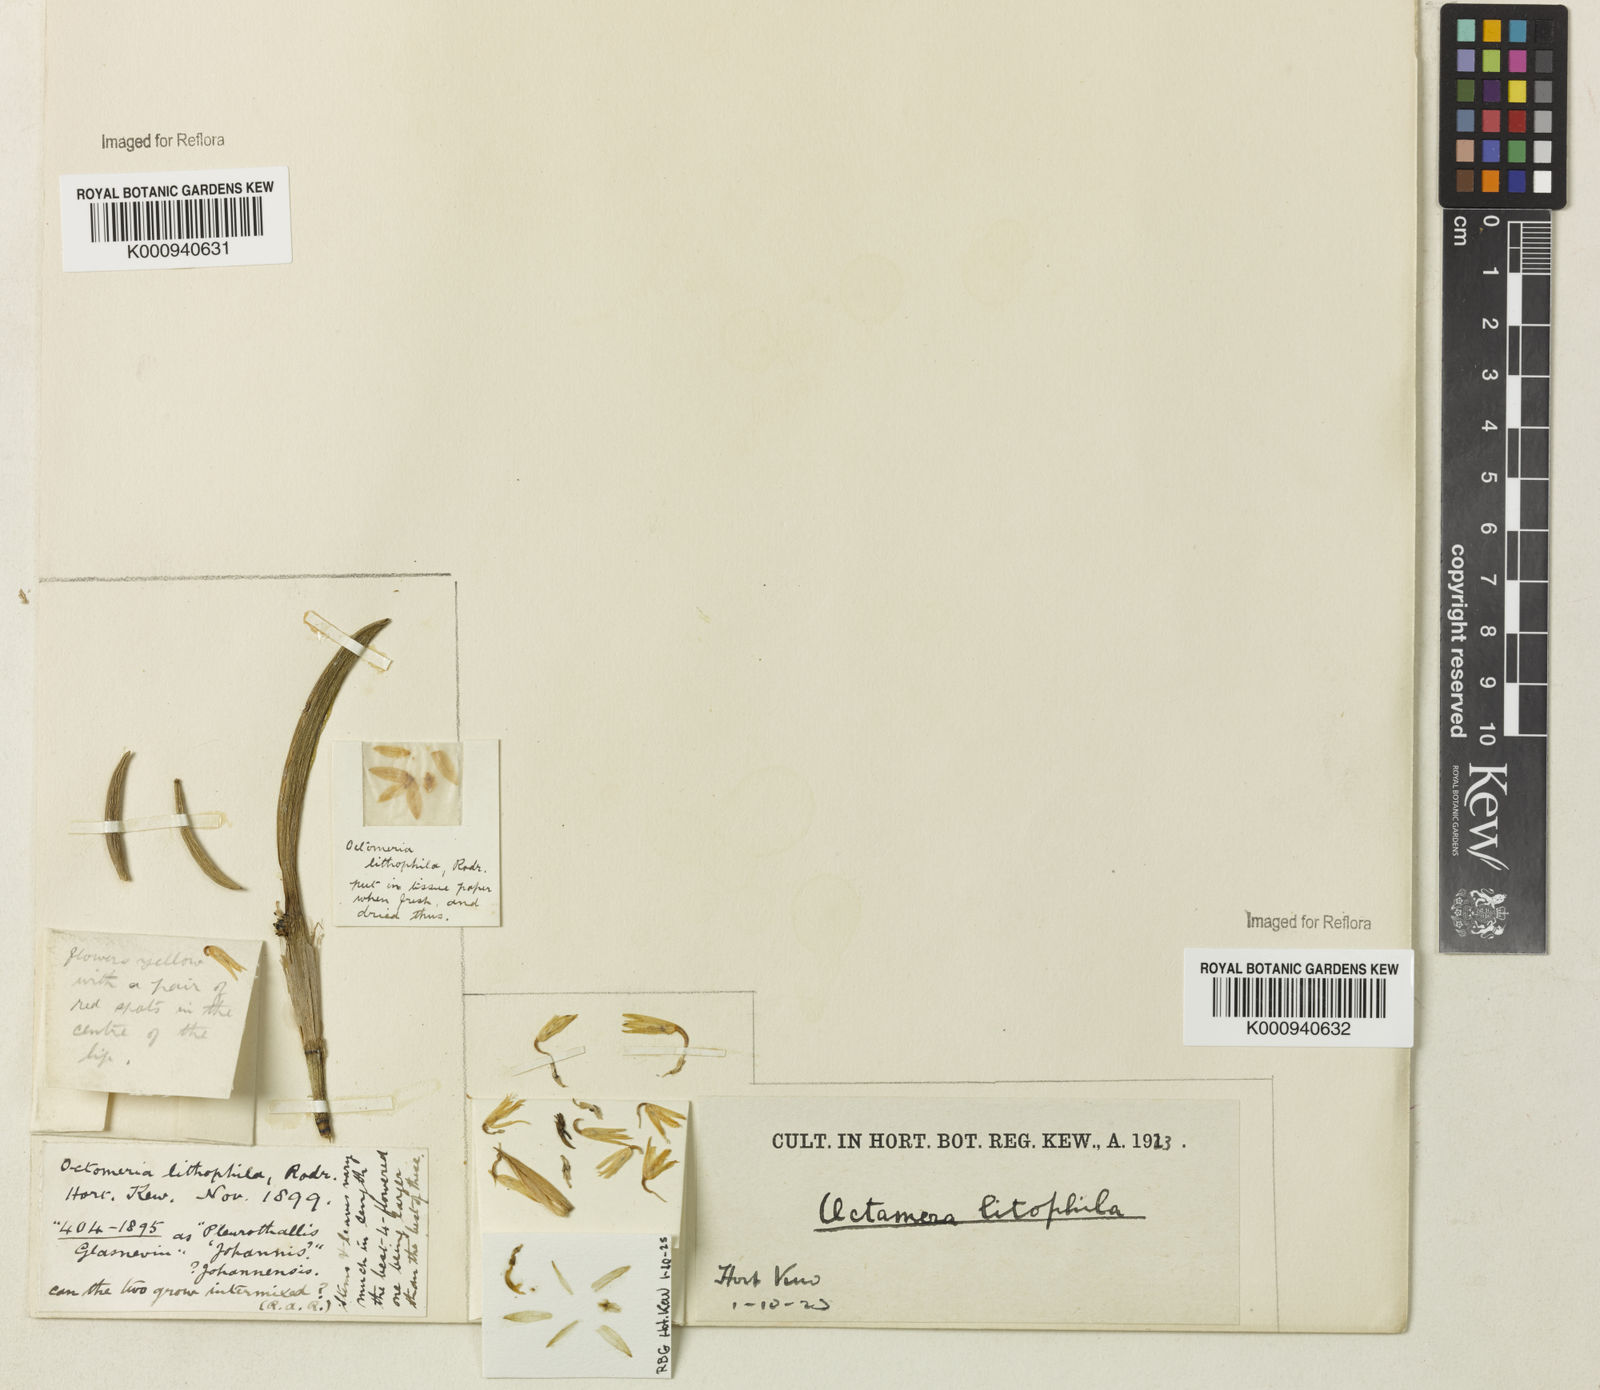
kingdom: Plantae
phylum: Tracheophyta
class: Liliopsida
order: Asparagales
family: Orchidaceae
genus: Octomeria
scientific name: Octomeria lithophila
